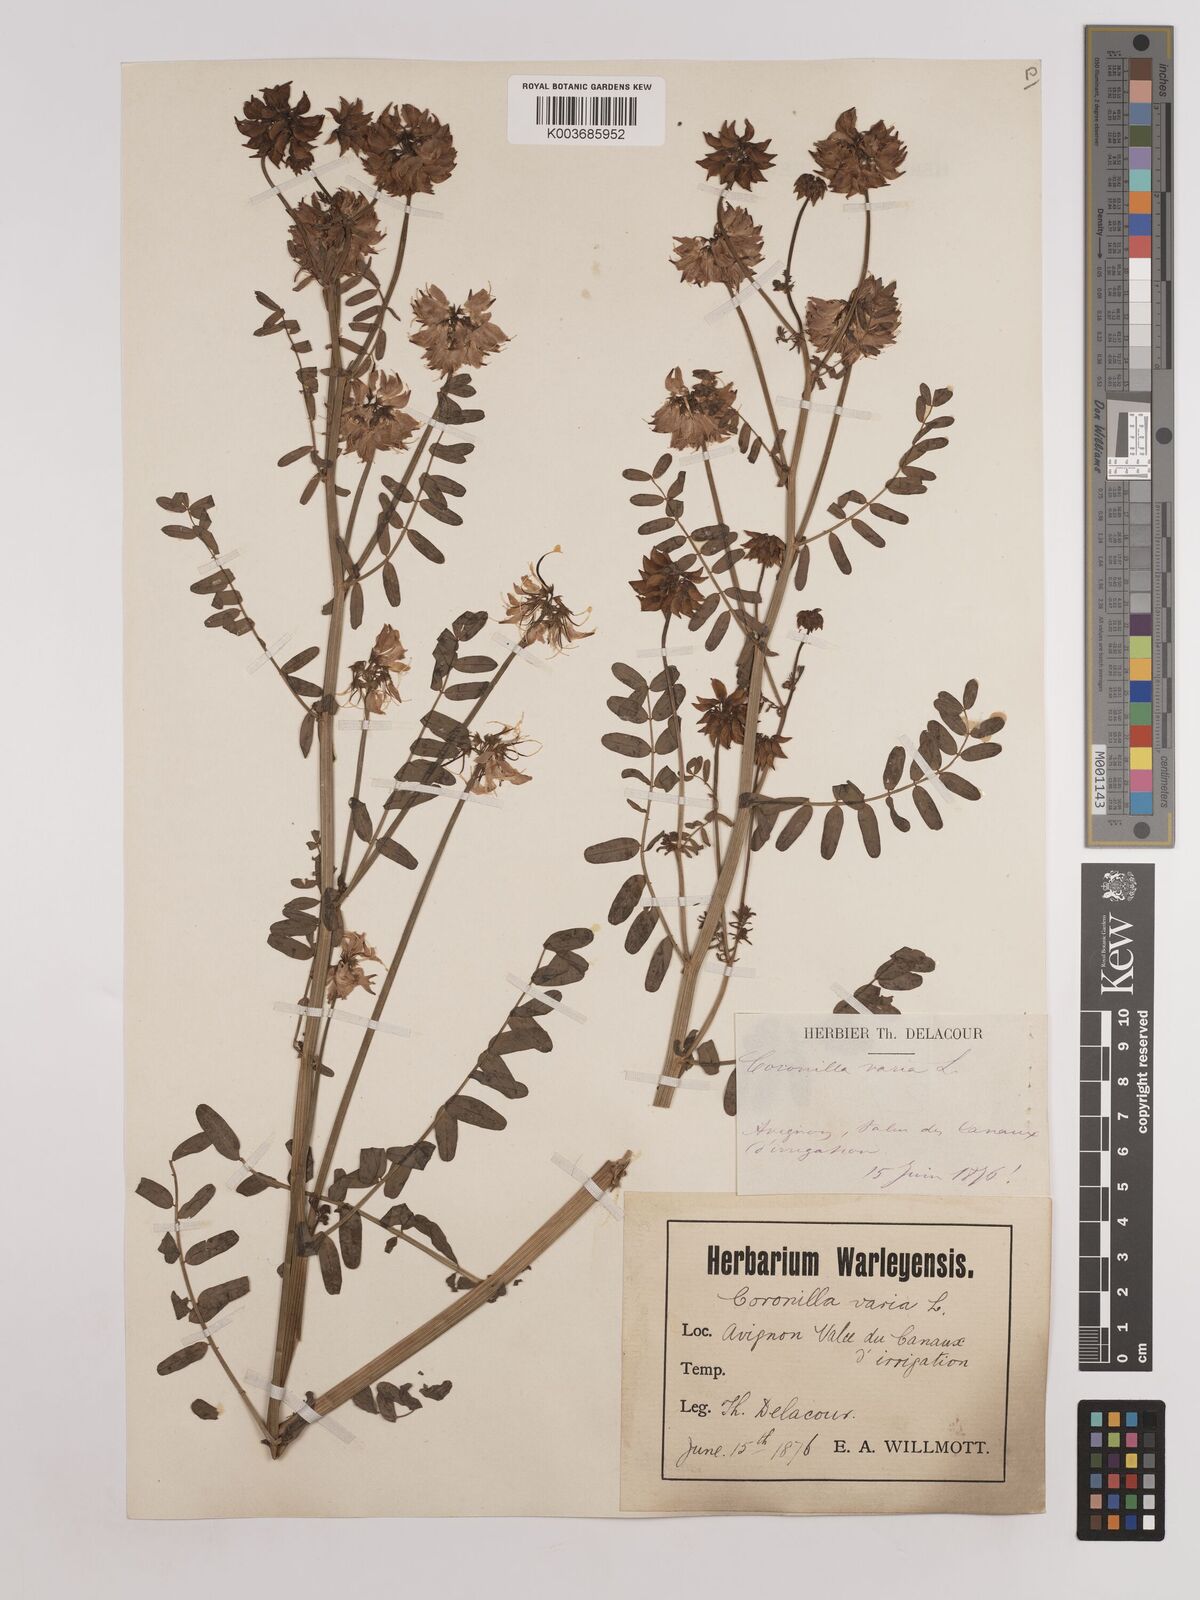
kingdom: Plantae
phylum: Tracheophyta
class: Magnoliopsida
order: Fabales
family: Fabaceae
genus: Coronilla
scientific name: Coronilla varia
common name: Crownvetch
